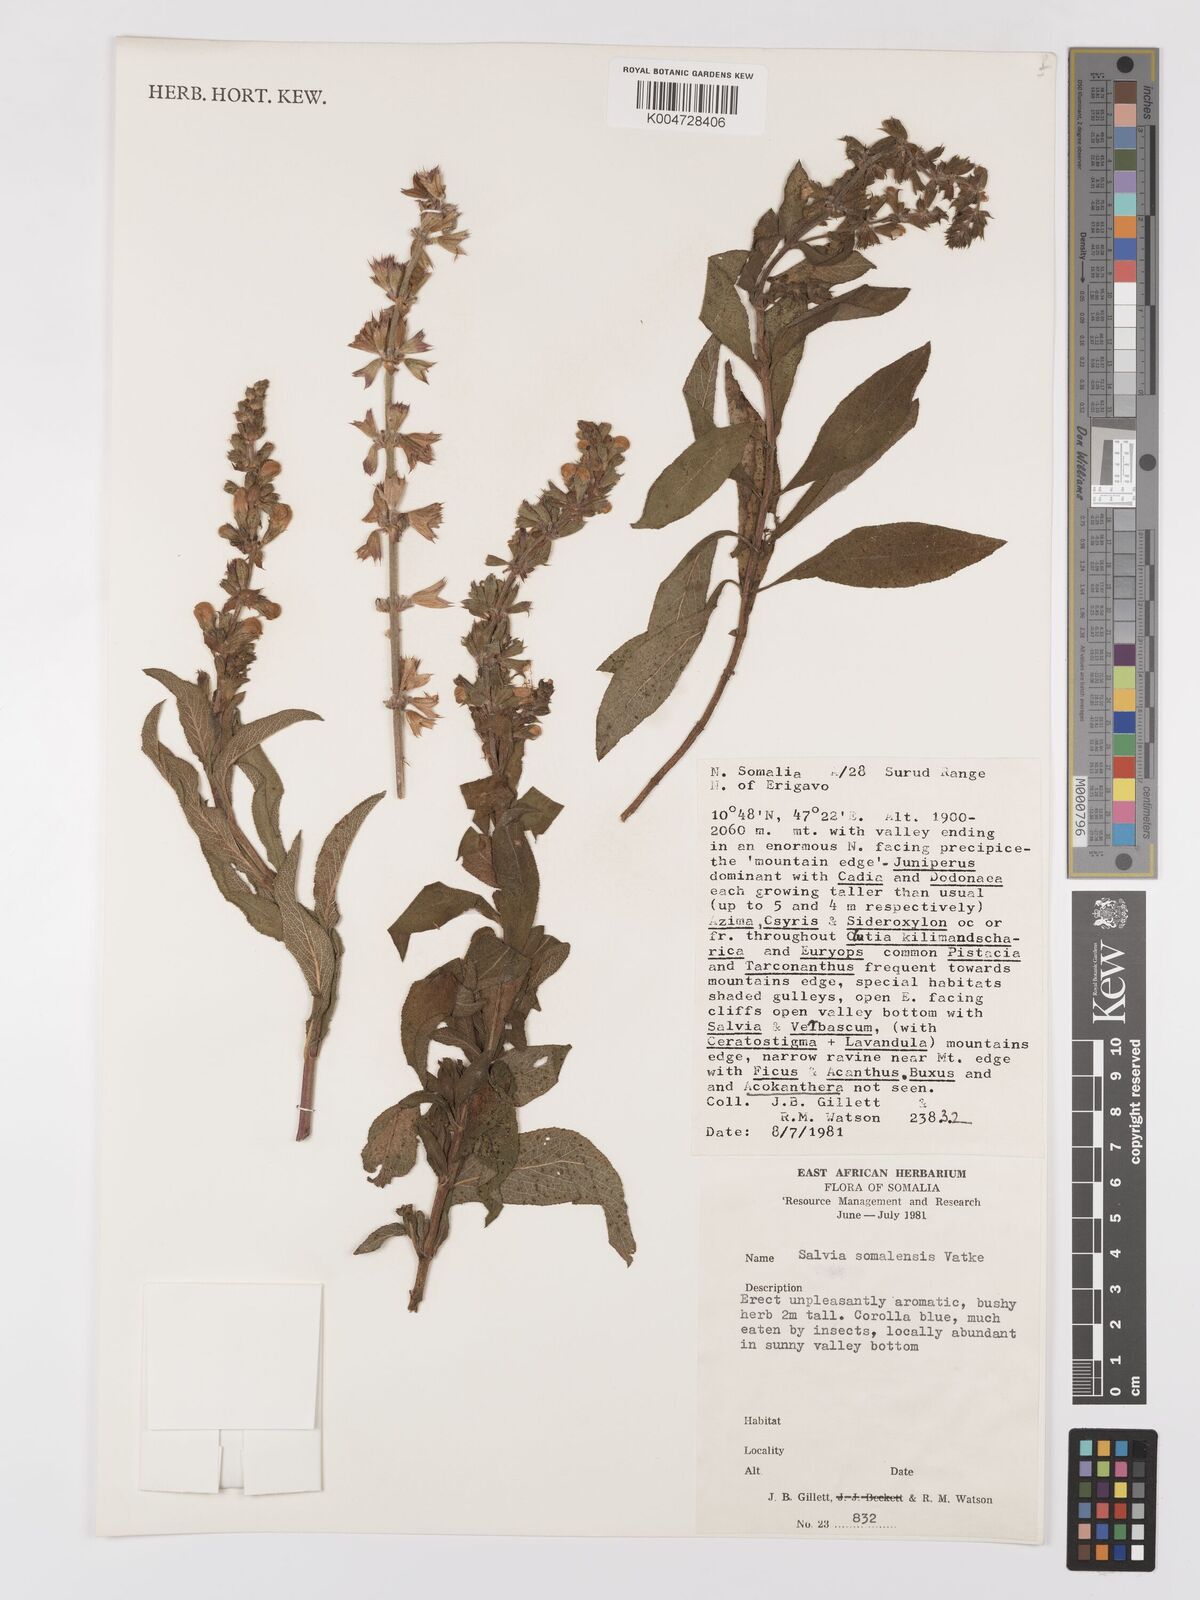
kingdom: Plantae
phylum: Tracheophyta
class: Magnoliopsida
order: Lamiales
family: Lamiaceae
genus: Salvia
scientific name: Salvia somalensis
